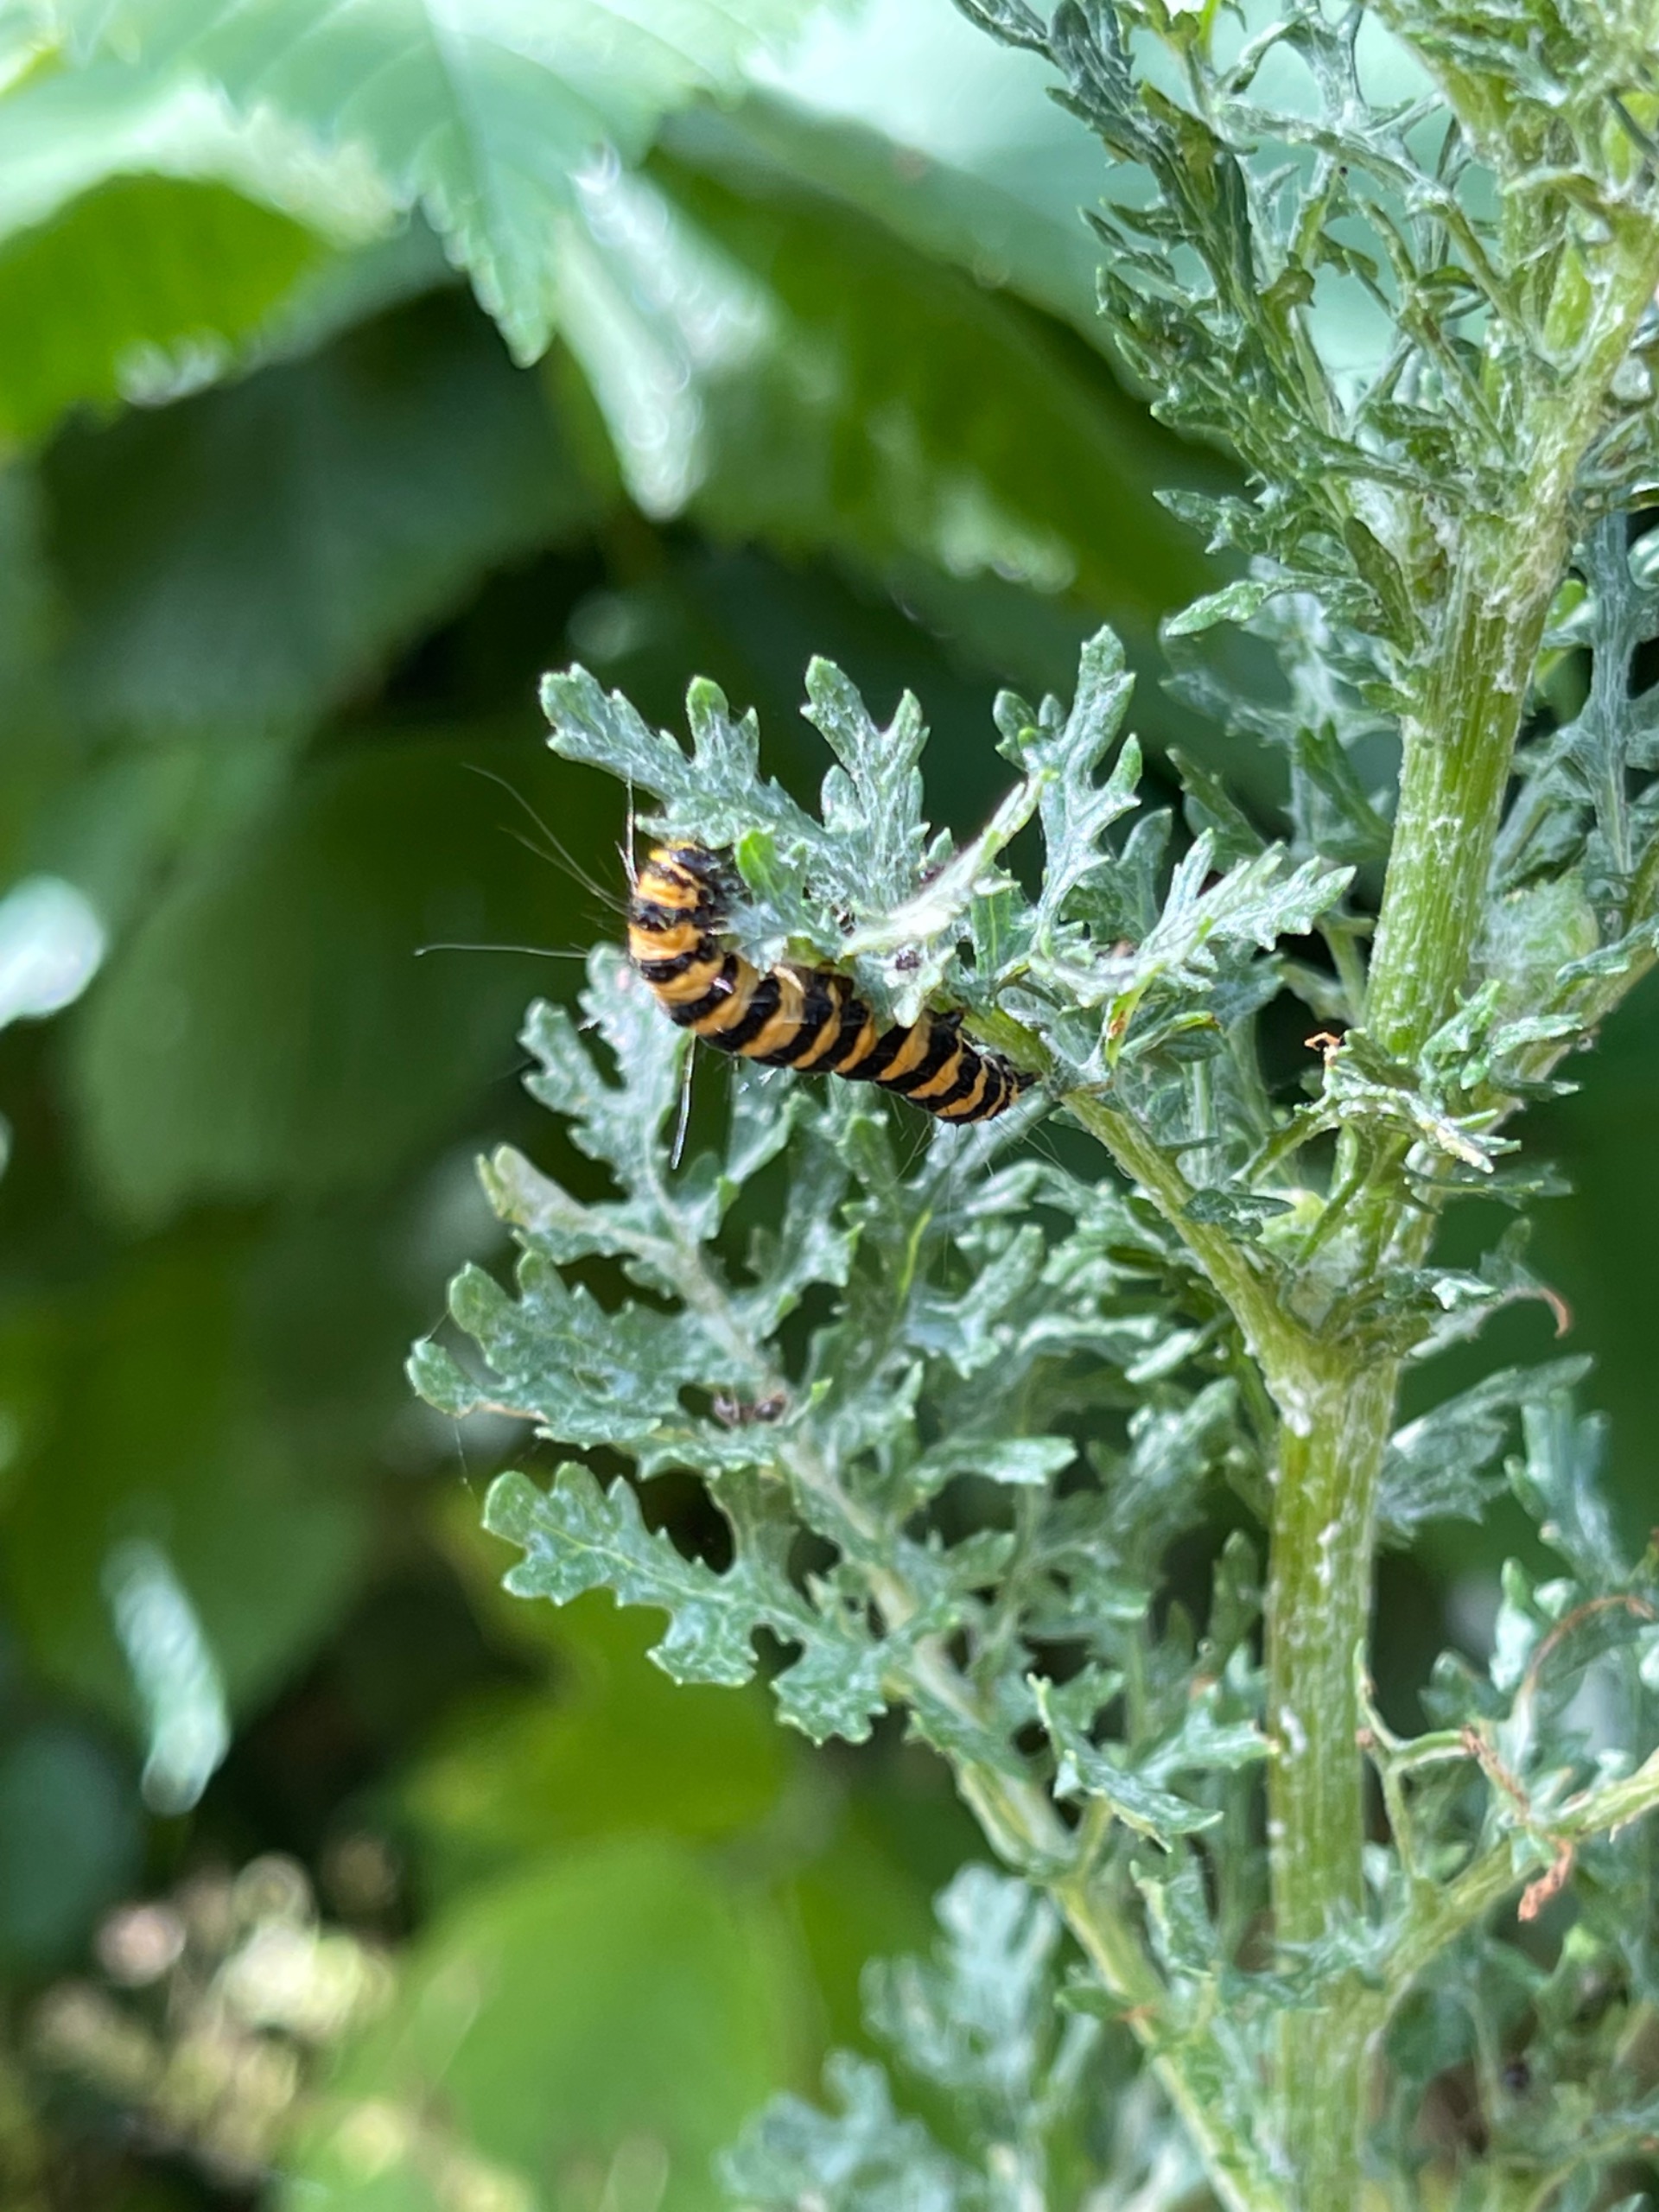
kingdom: Animalia
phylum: Arthropoda
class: Insecta
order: Lepidoptera
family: Erebidae
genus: Tyria
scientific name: Tyria jacobaeae
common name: Blodplet
